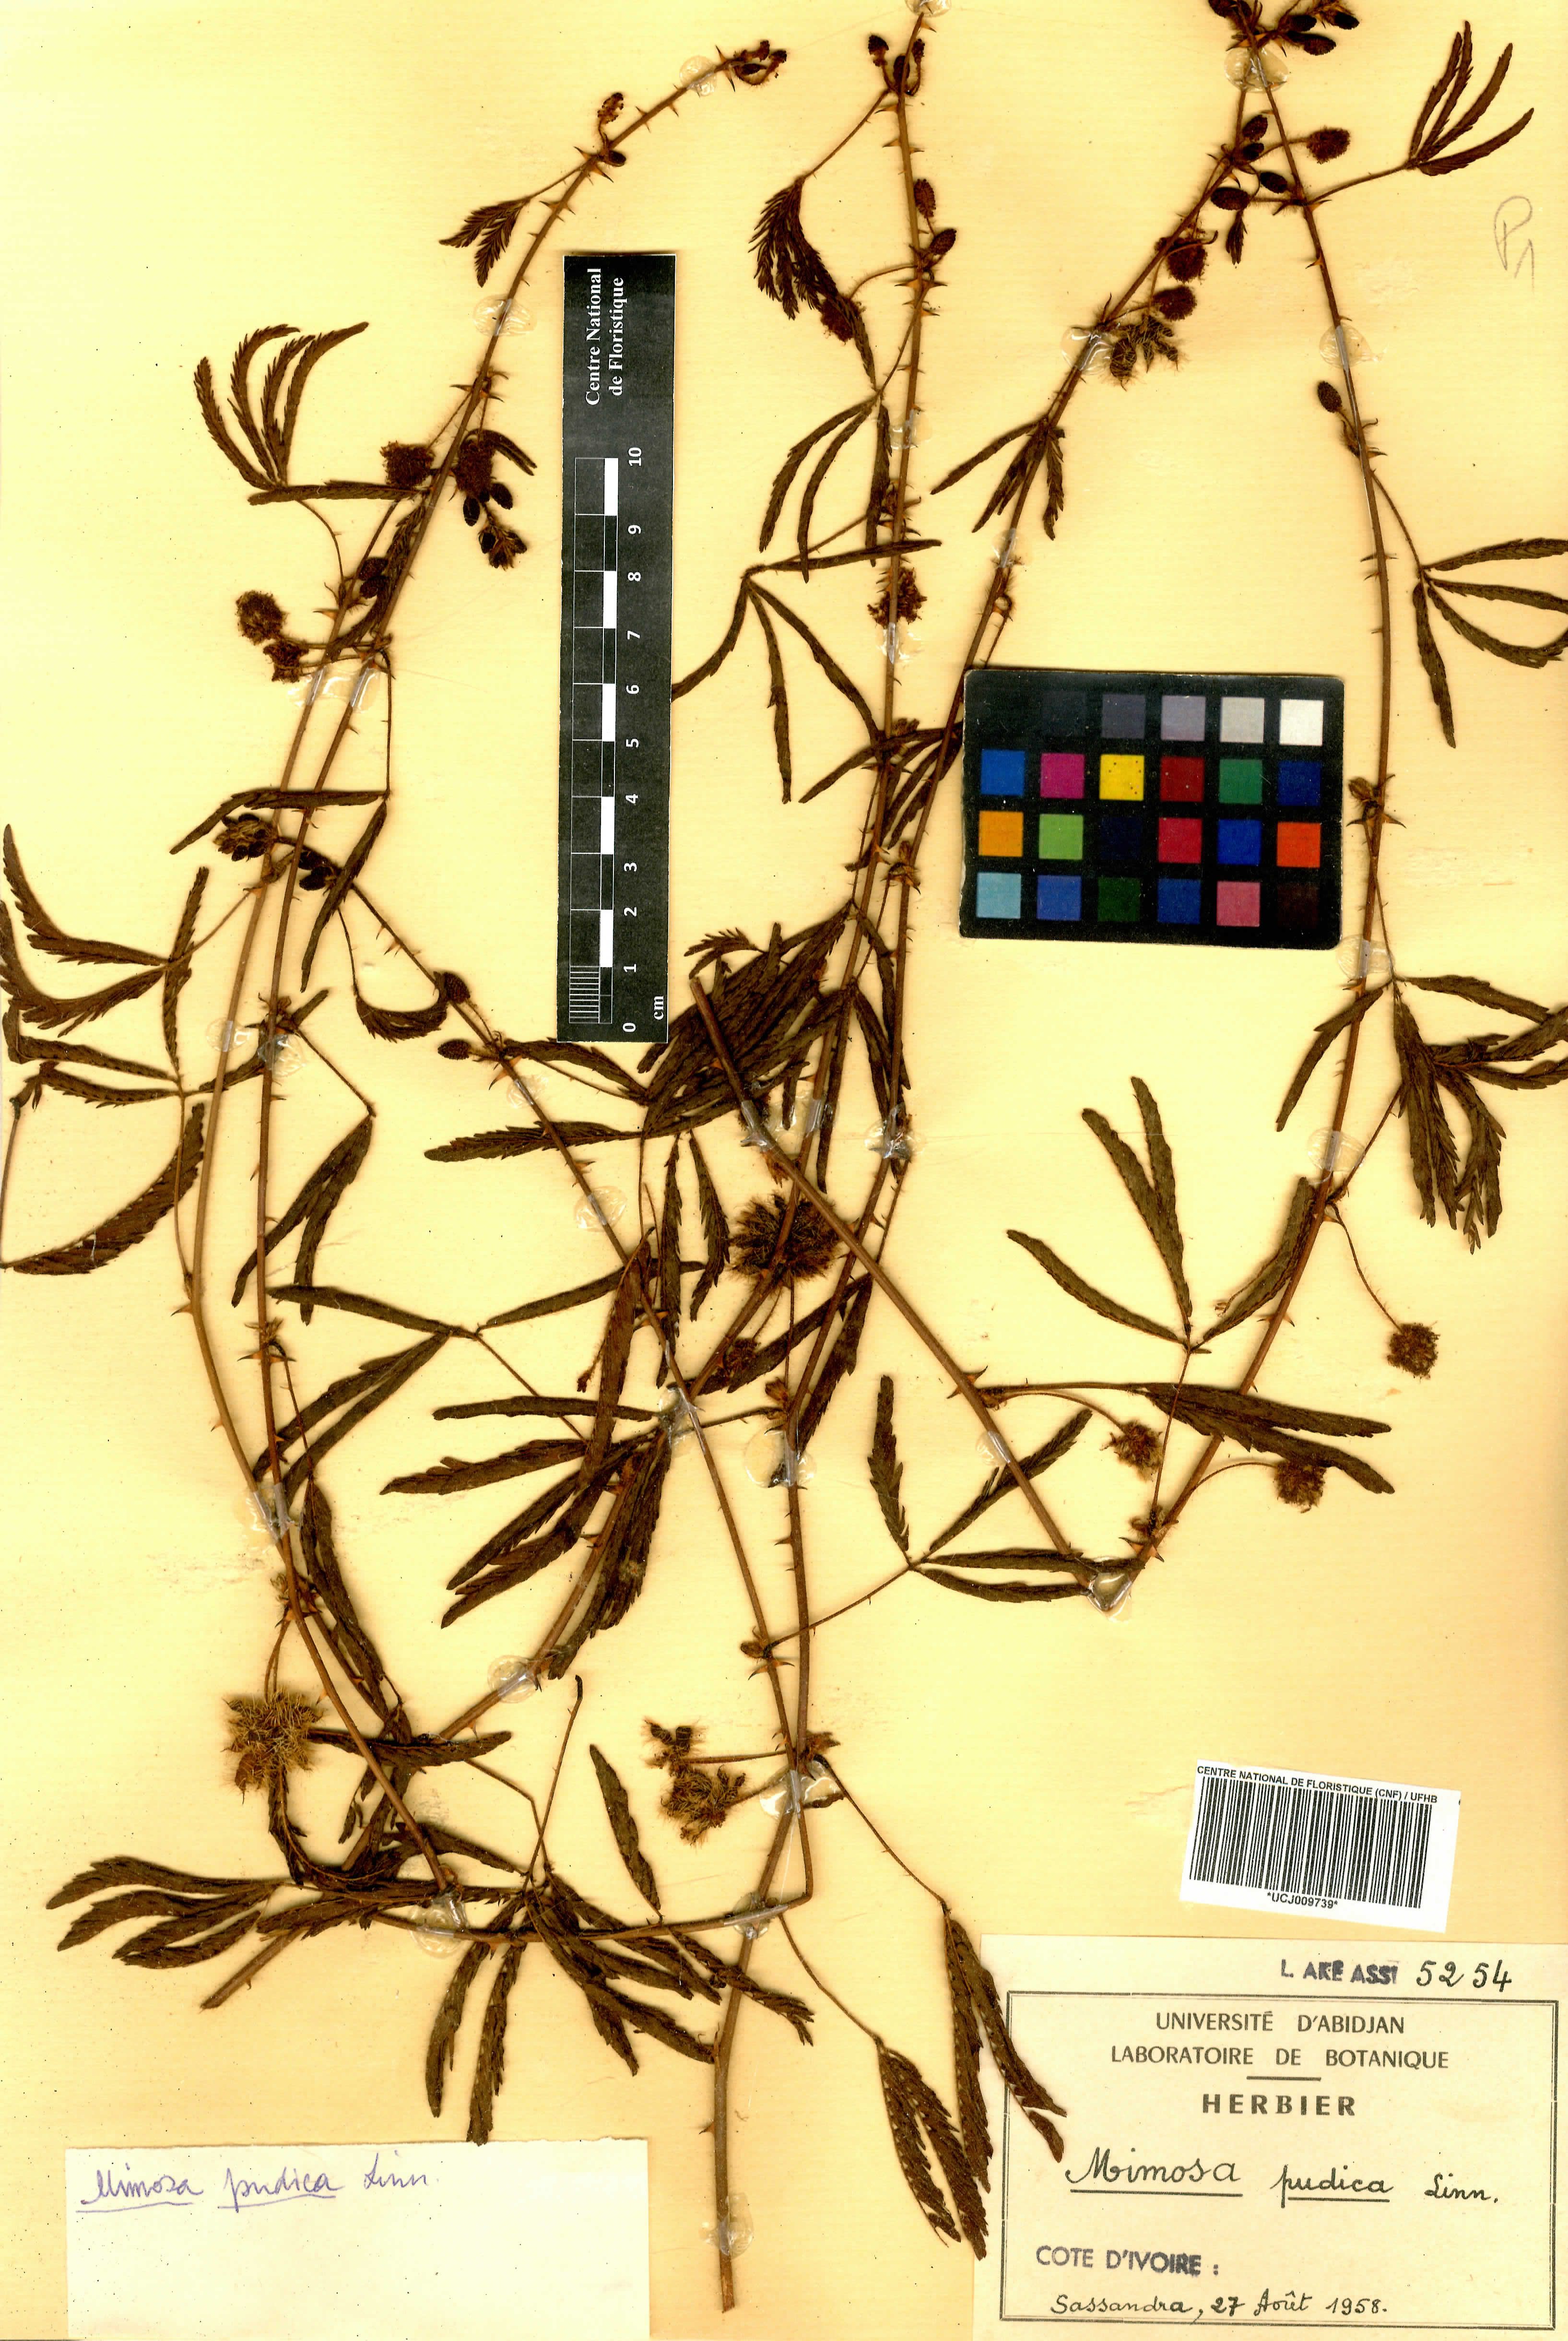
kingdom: Plantae
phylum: Tracheophyta
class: Magnoliopsida
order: Fabales
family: Fabaceae
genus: Mimosa
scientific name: Mimosa pudica
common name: Sensitive plant
